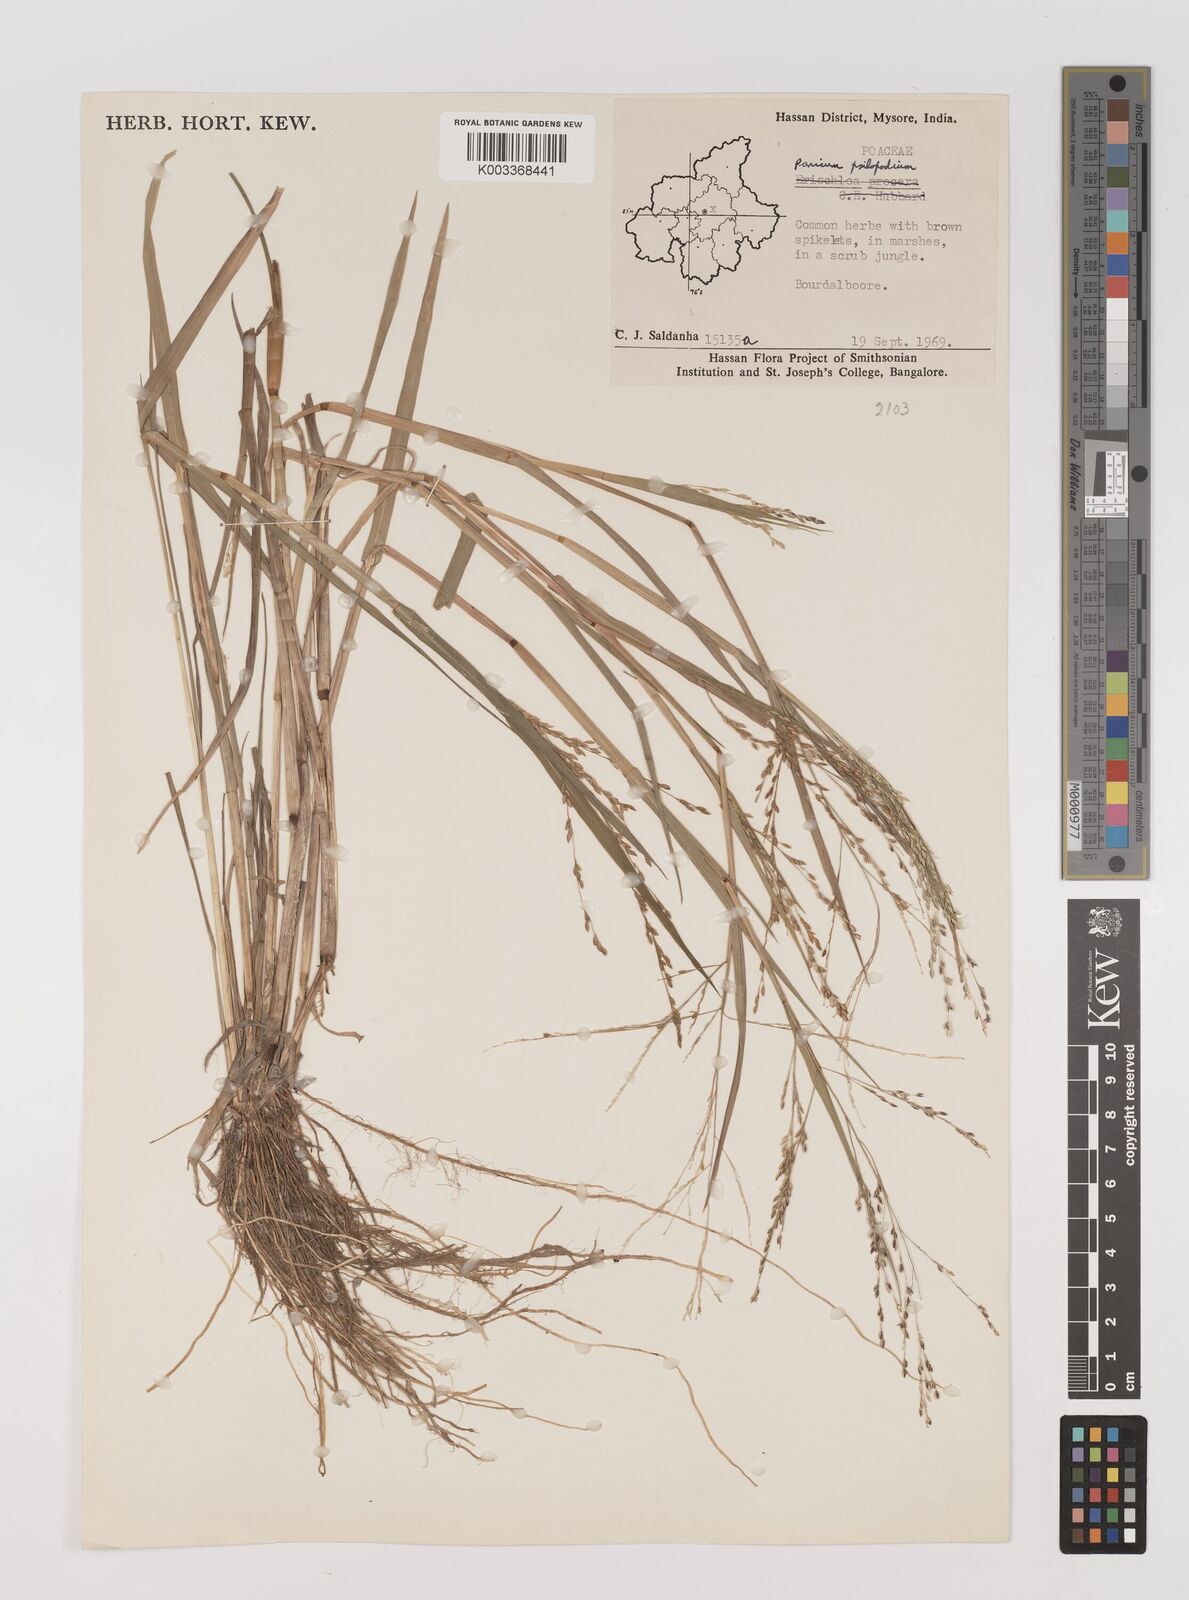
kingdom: Plantae
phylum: Tracheophyta
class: Liliopsida
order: Poales
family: Poaceae
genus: Panicum
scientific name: Panicum sumatrense
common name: Little millet
